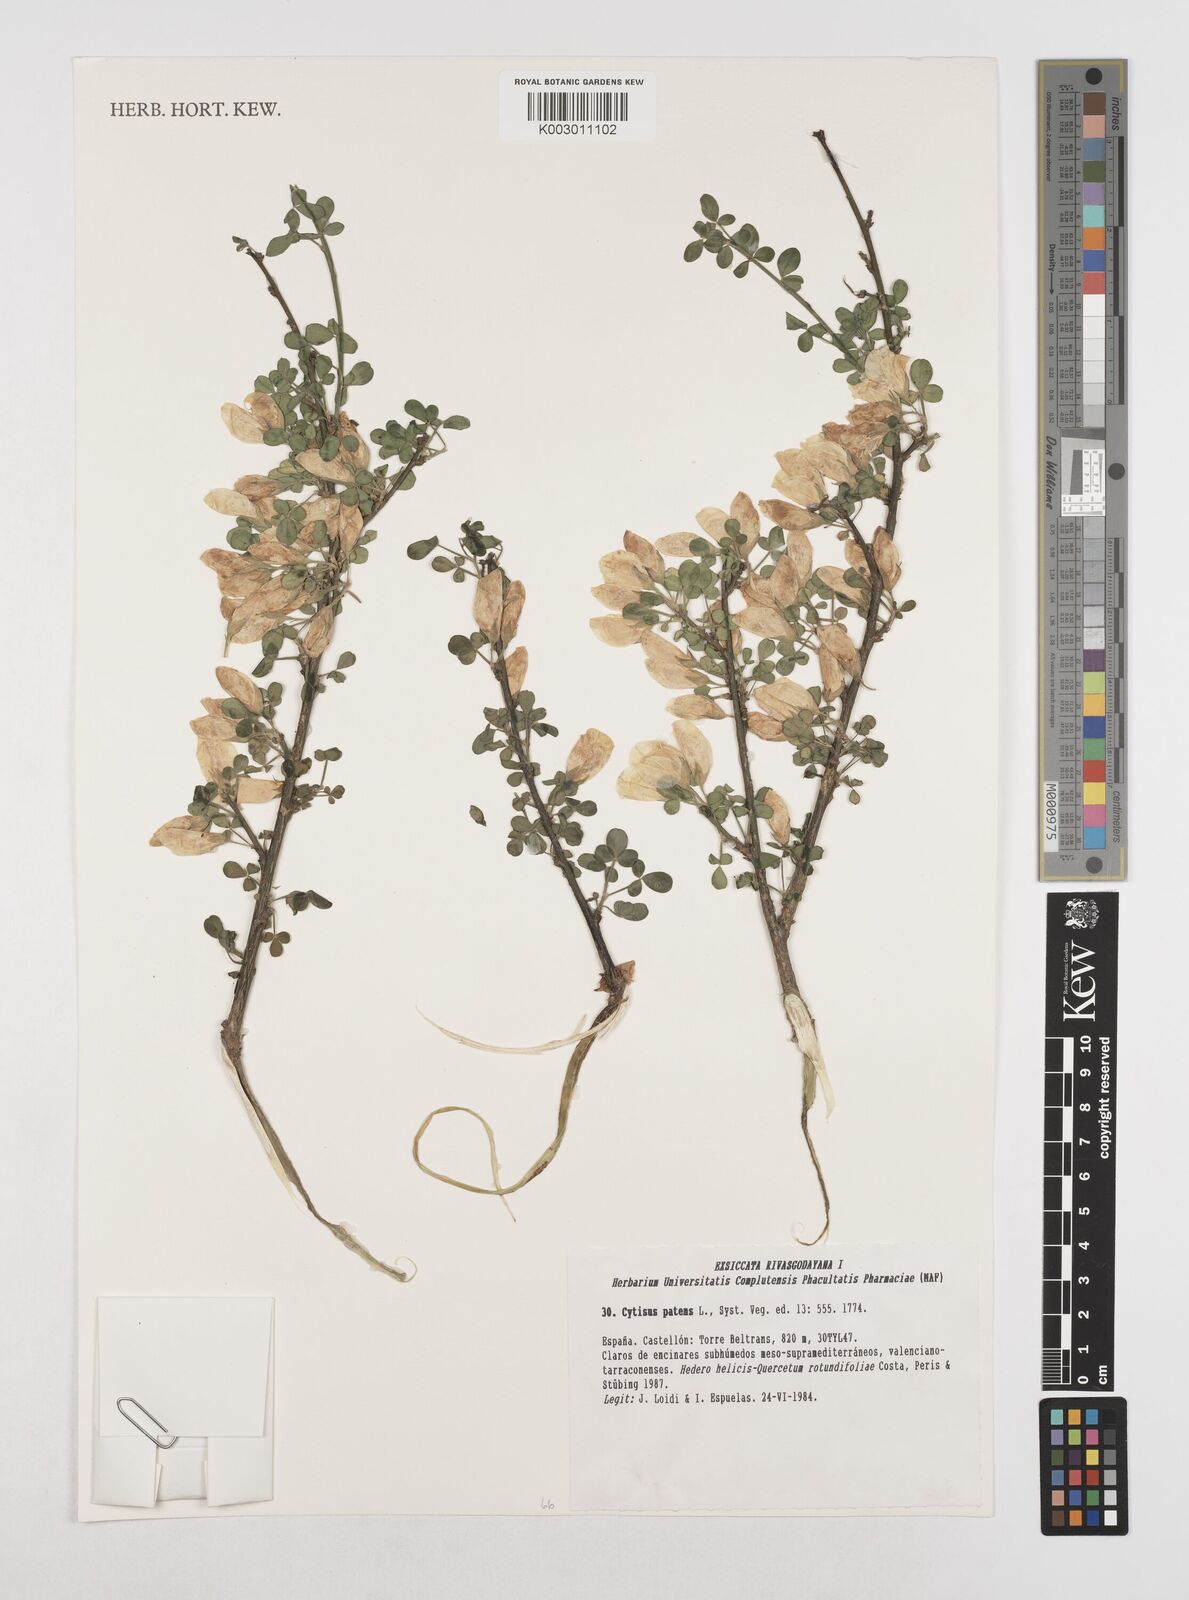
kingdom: Plantae
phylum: Tracheophyta
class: Magnoliopsida
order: Fabales
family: Fabaceae
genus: Cytisus
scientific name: Cytisus striatus
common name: Hairy-fruited broom
